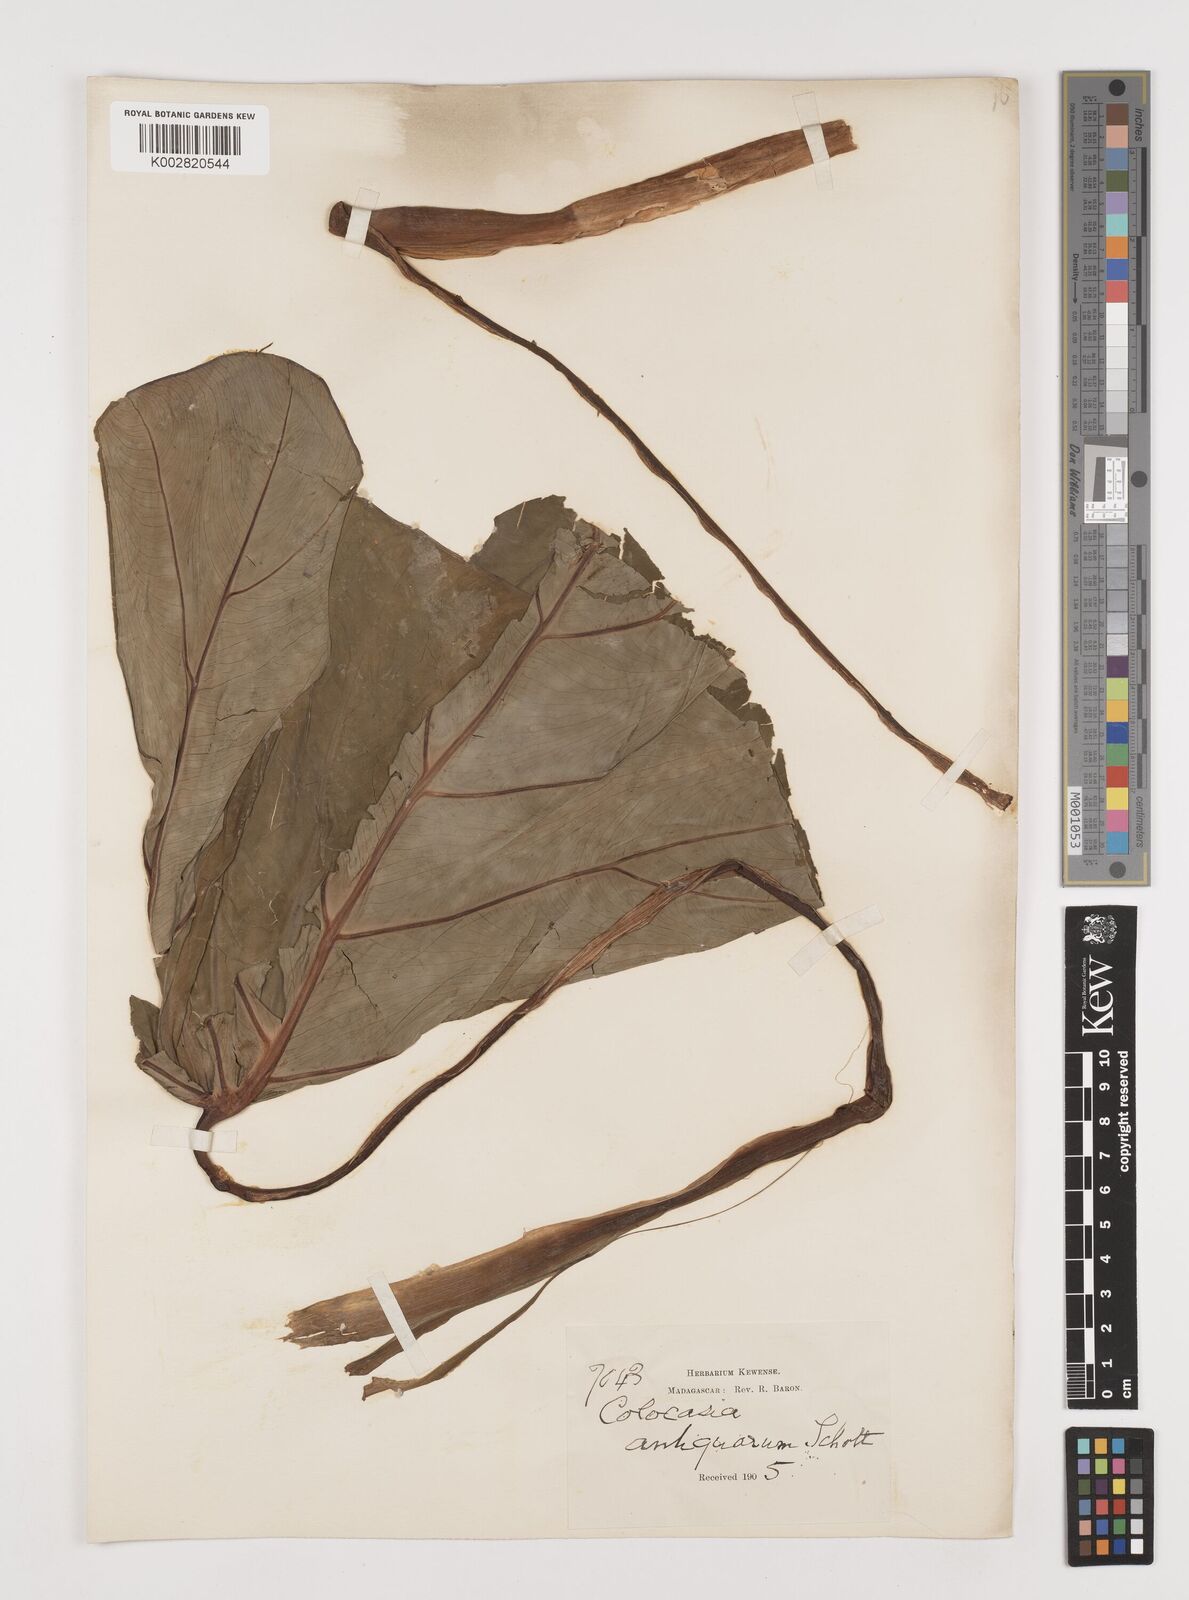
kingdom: Plantae
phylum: Tracheophyta
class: Liliopsida
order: Alismatales
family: Araceae
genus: Colocasia
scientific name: Colocasia esculenta
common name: Taro
